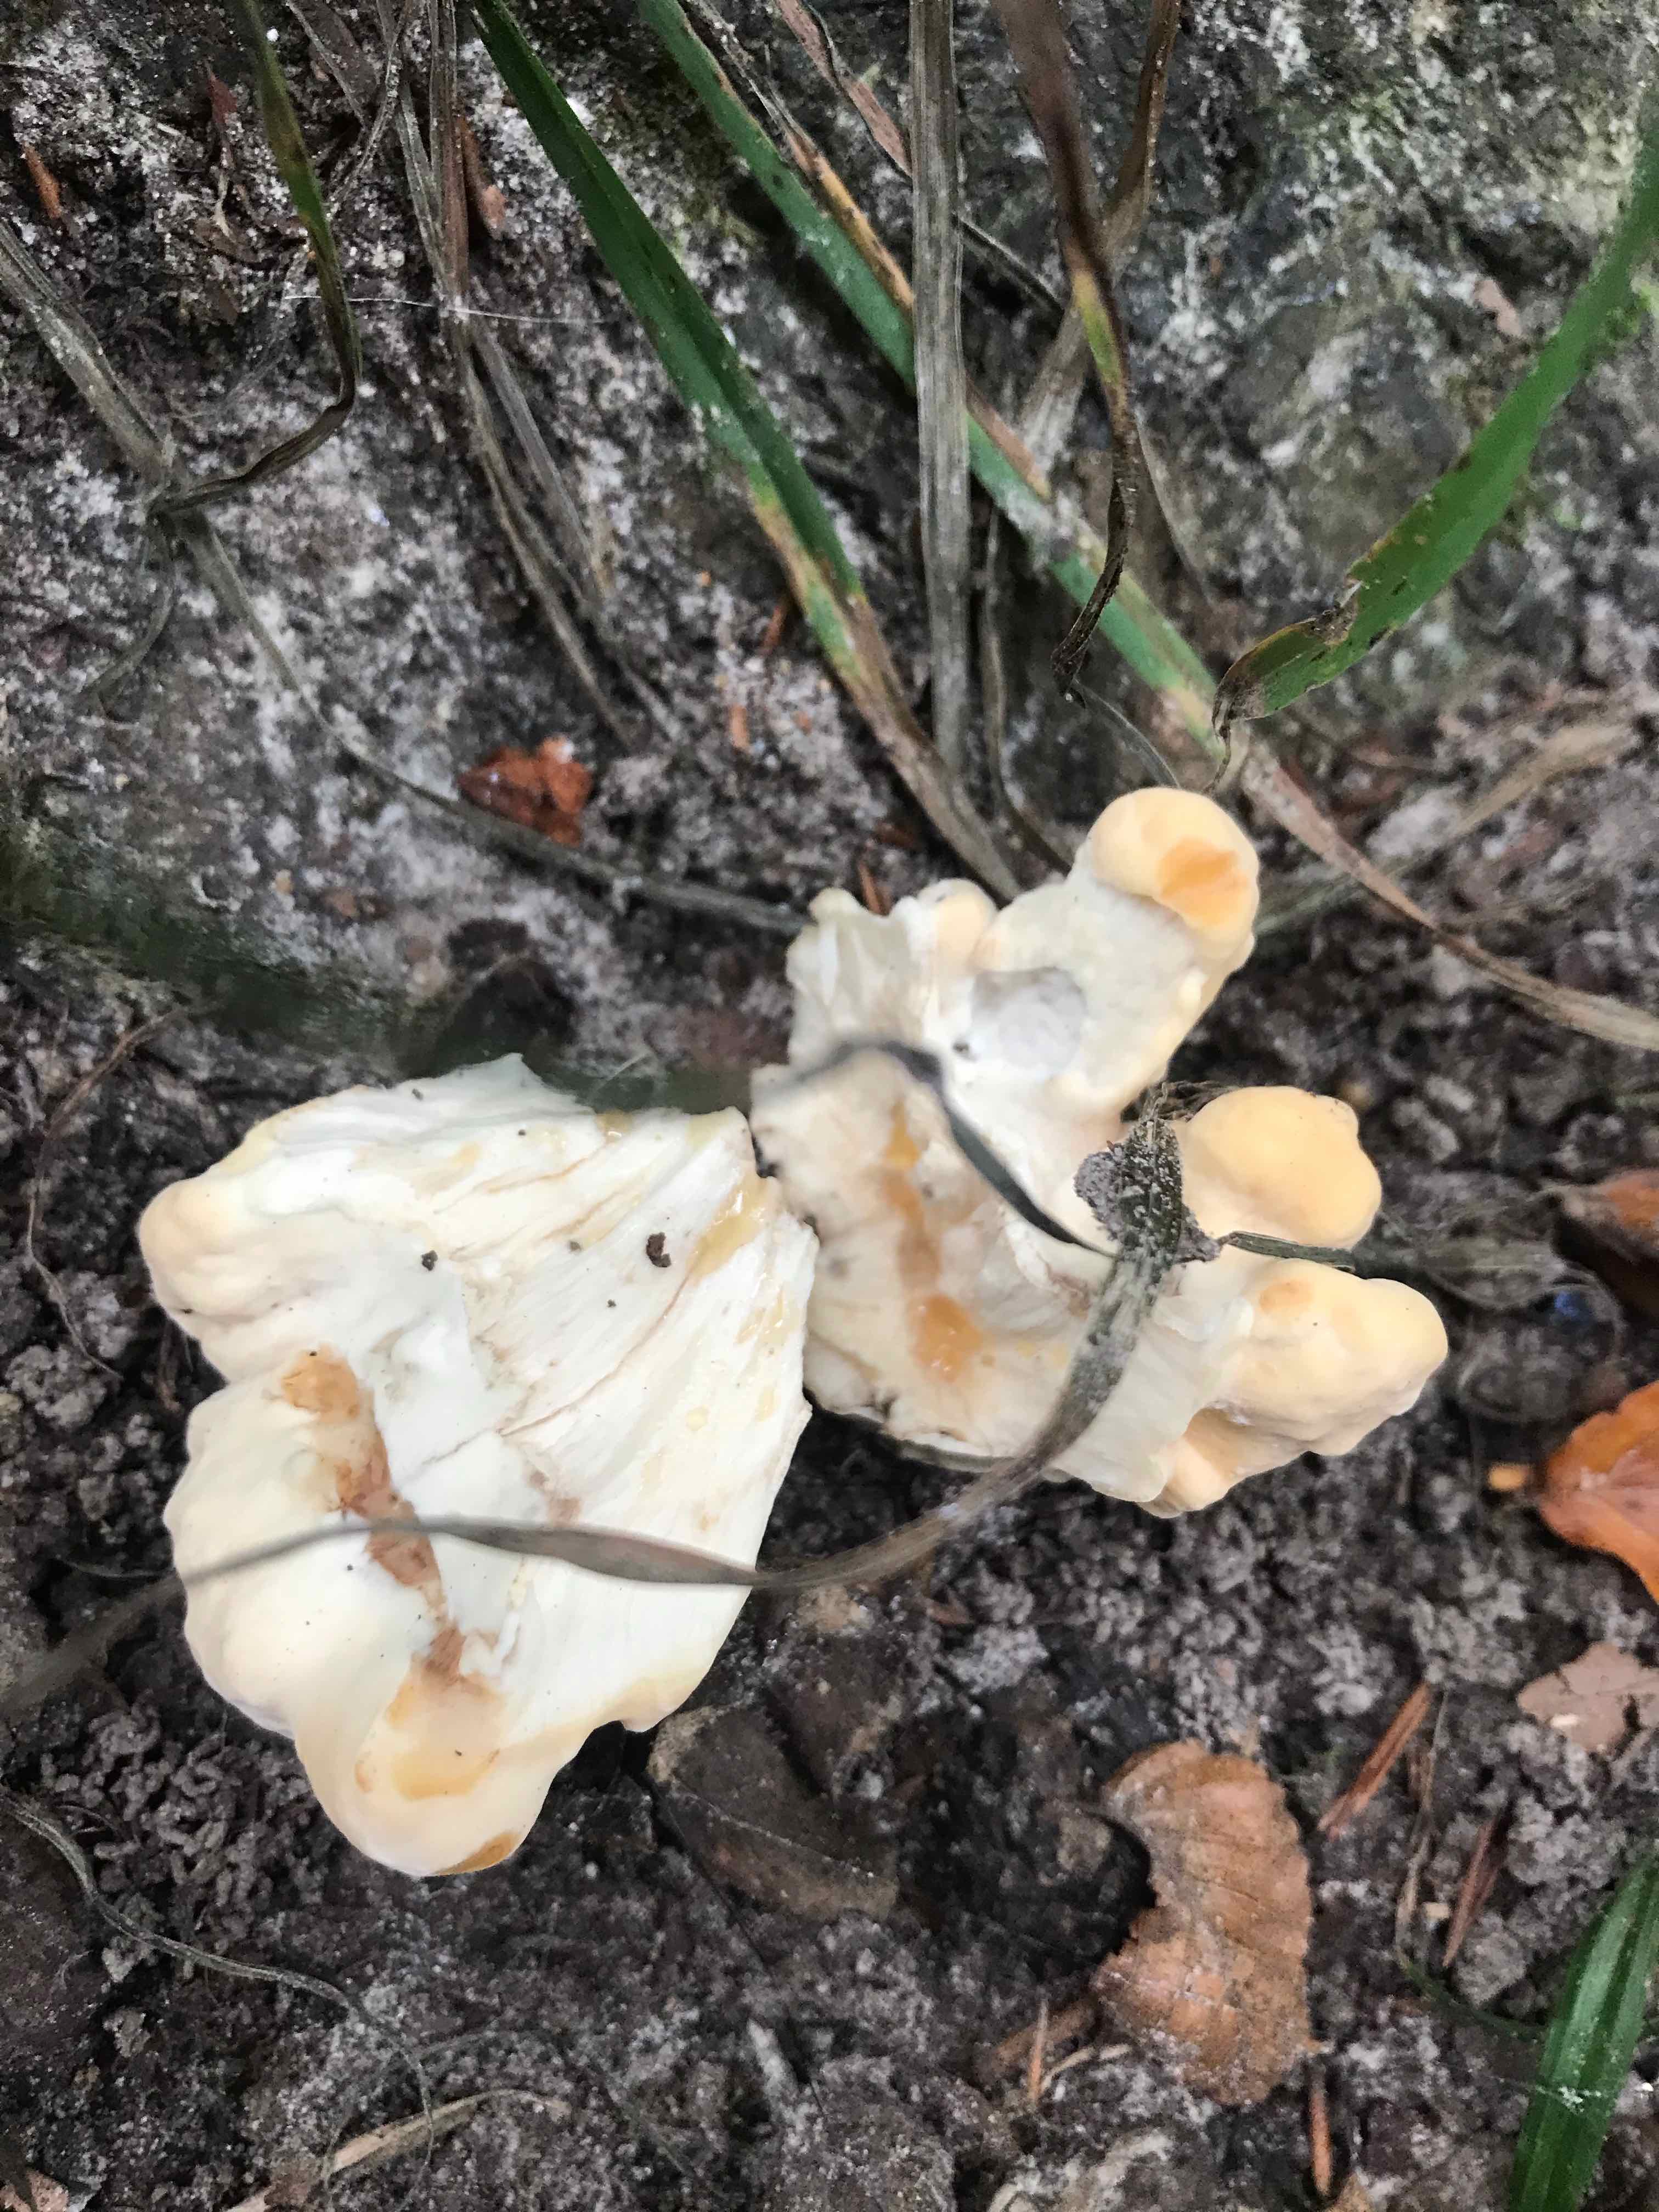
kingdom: Fungi
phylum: Basidiomycota
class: Agaricomycetes
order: Polyporales
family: Meripilaceae
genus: Meripilus
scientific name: Meripilus giganteus
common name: kæmpeporesvamp
